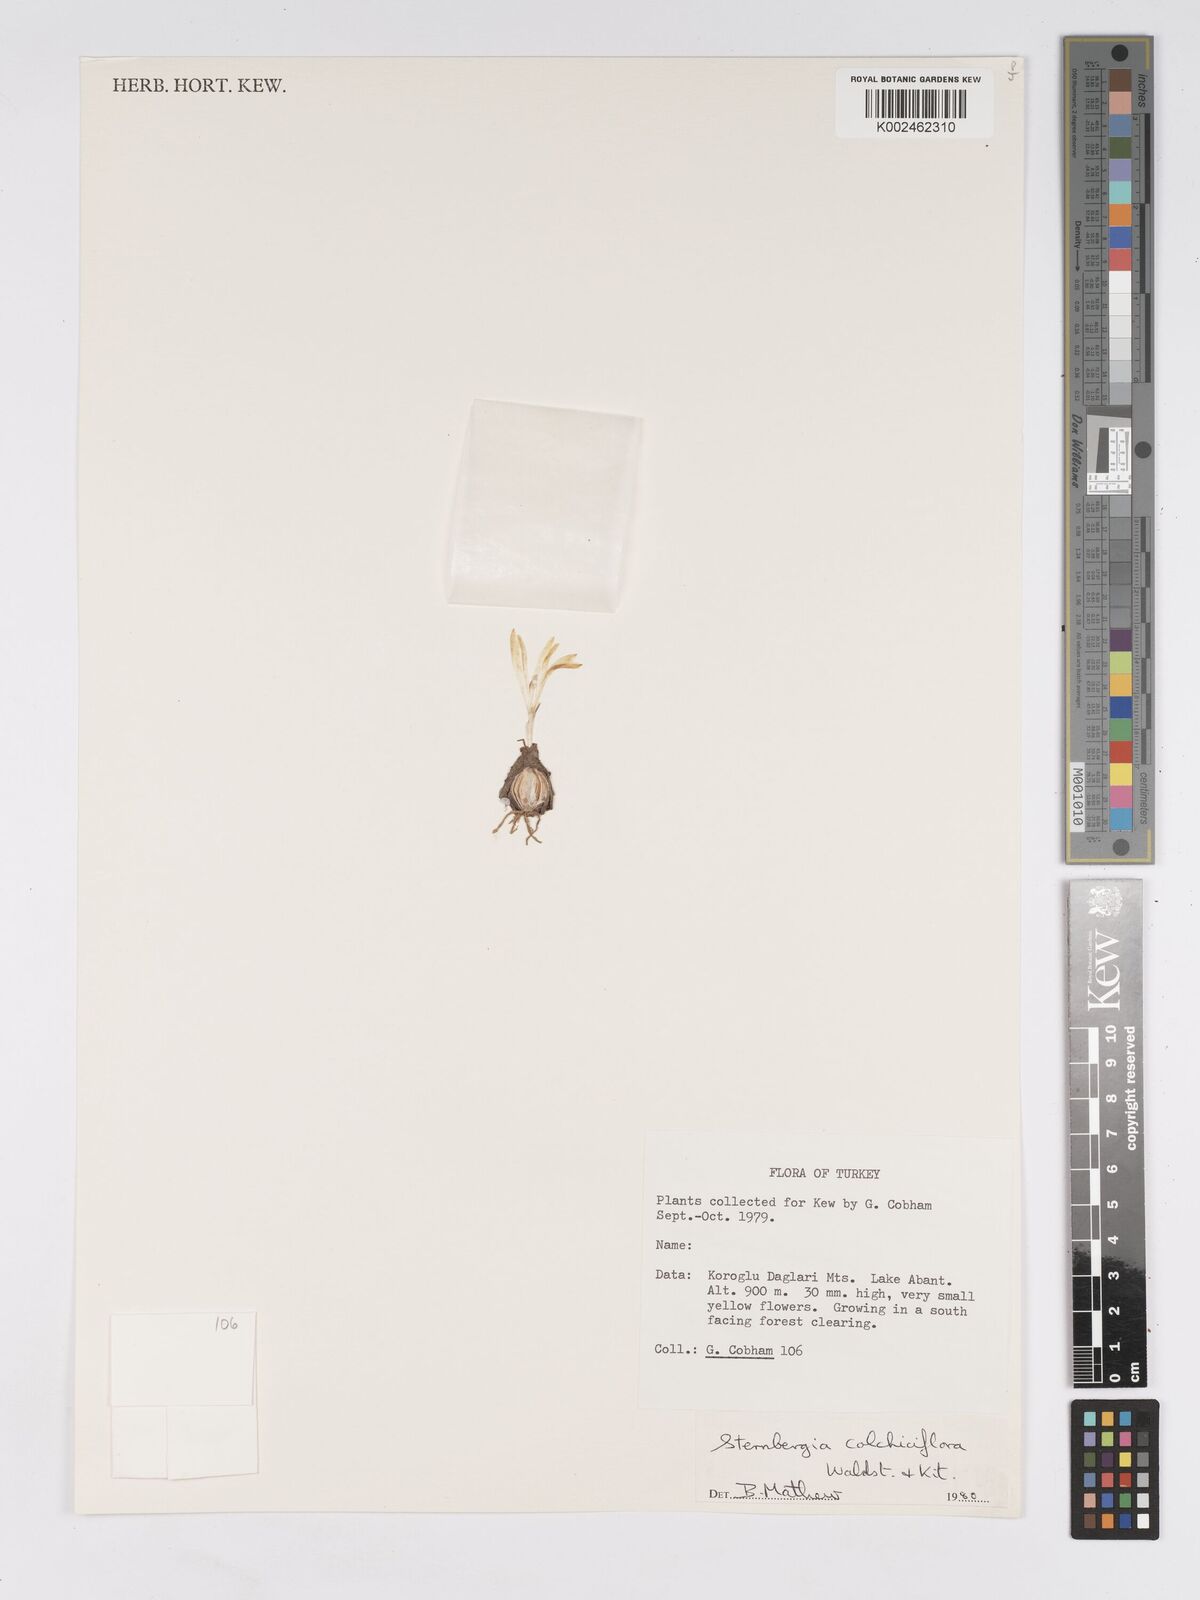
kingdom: Plantae
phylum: Tracheophyta
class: Liliopsida
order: Asparagales
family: Amaryllidaceae
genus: Sternbergia
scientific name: Sternbergia colchiciflora
